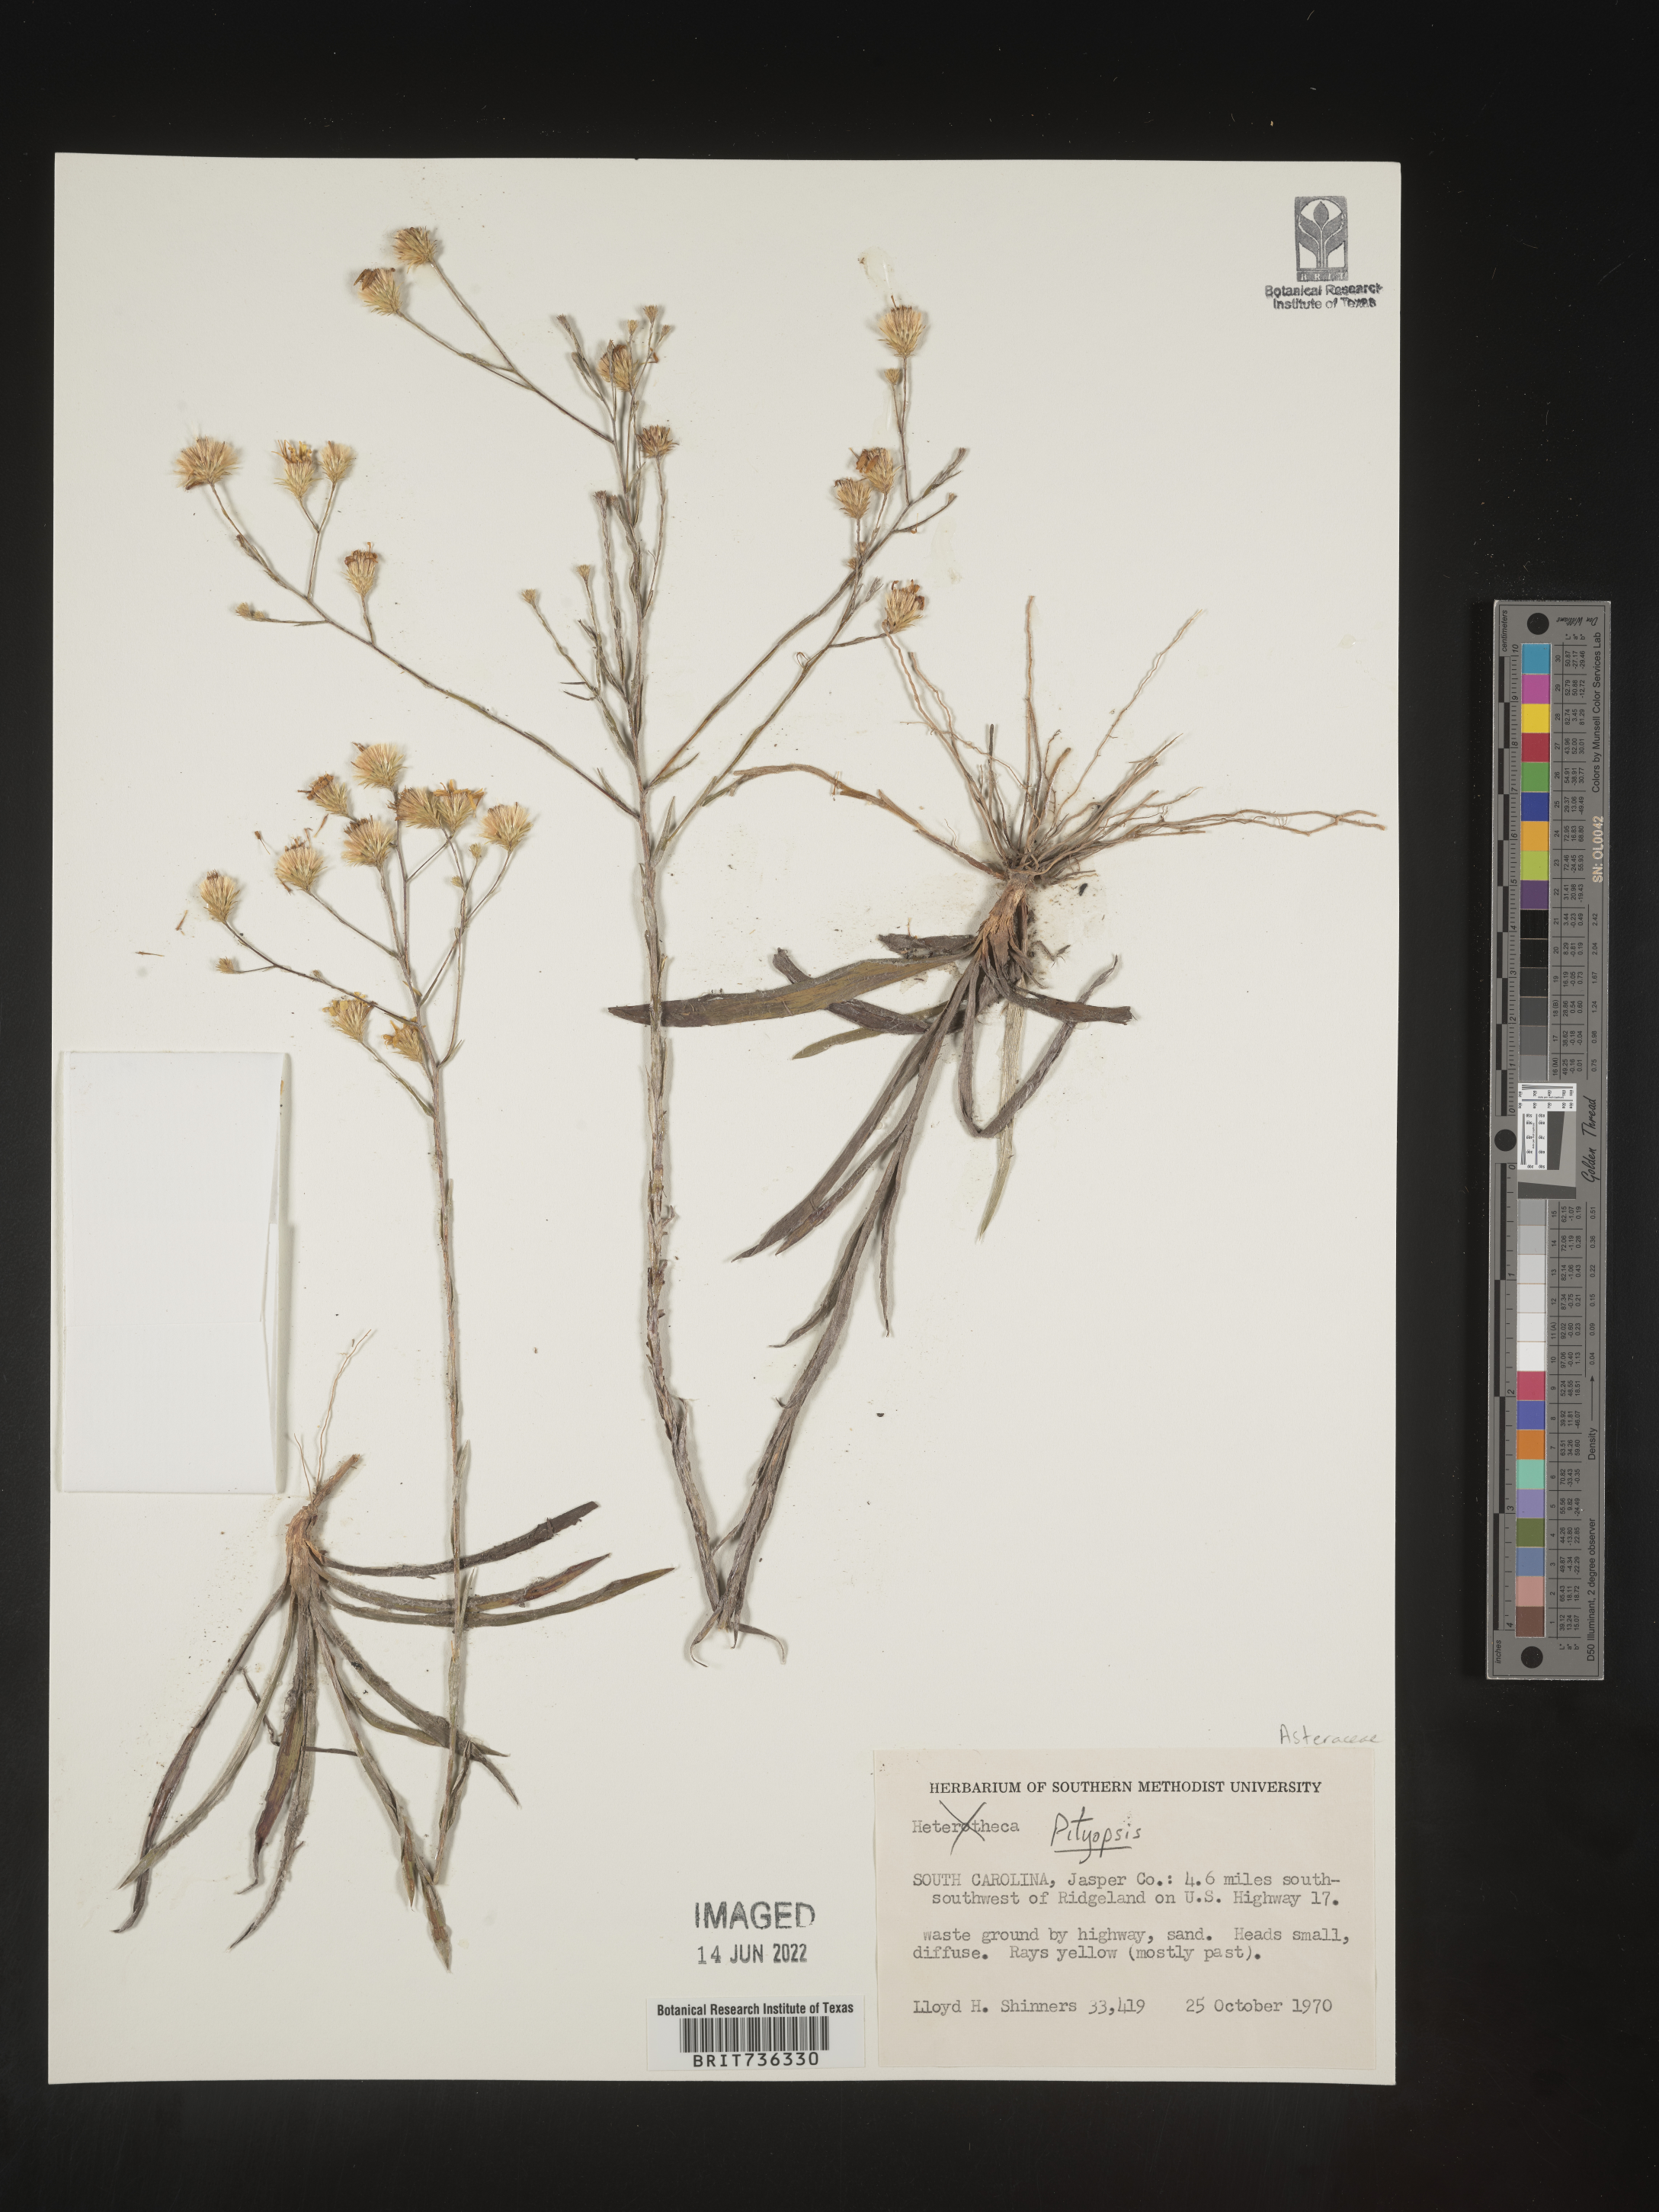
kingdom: Plantae
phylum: Tracheophyta
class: Magnoliopsida
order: Asterales
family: Asteraceae
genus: Pityopsis
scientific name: Pityopsis microcephala
